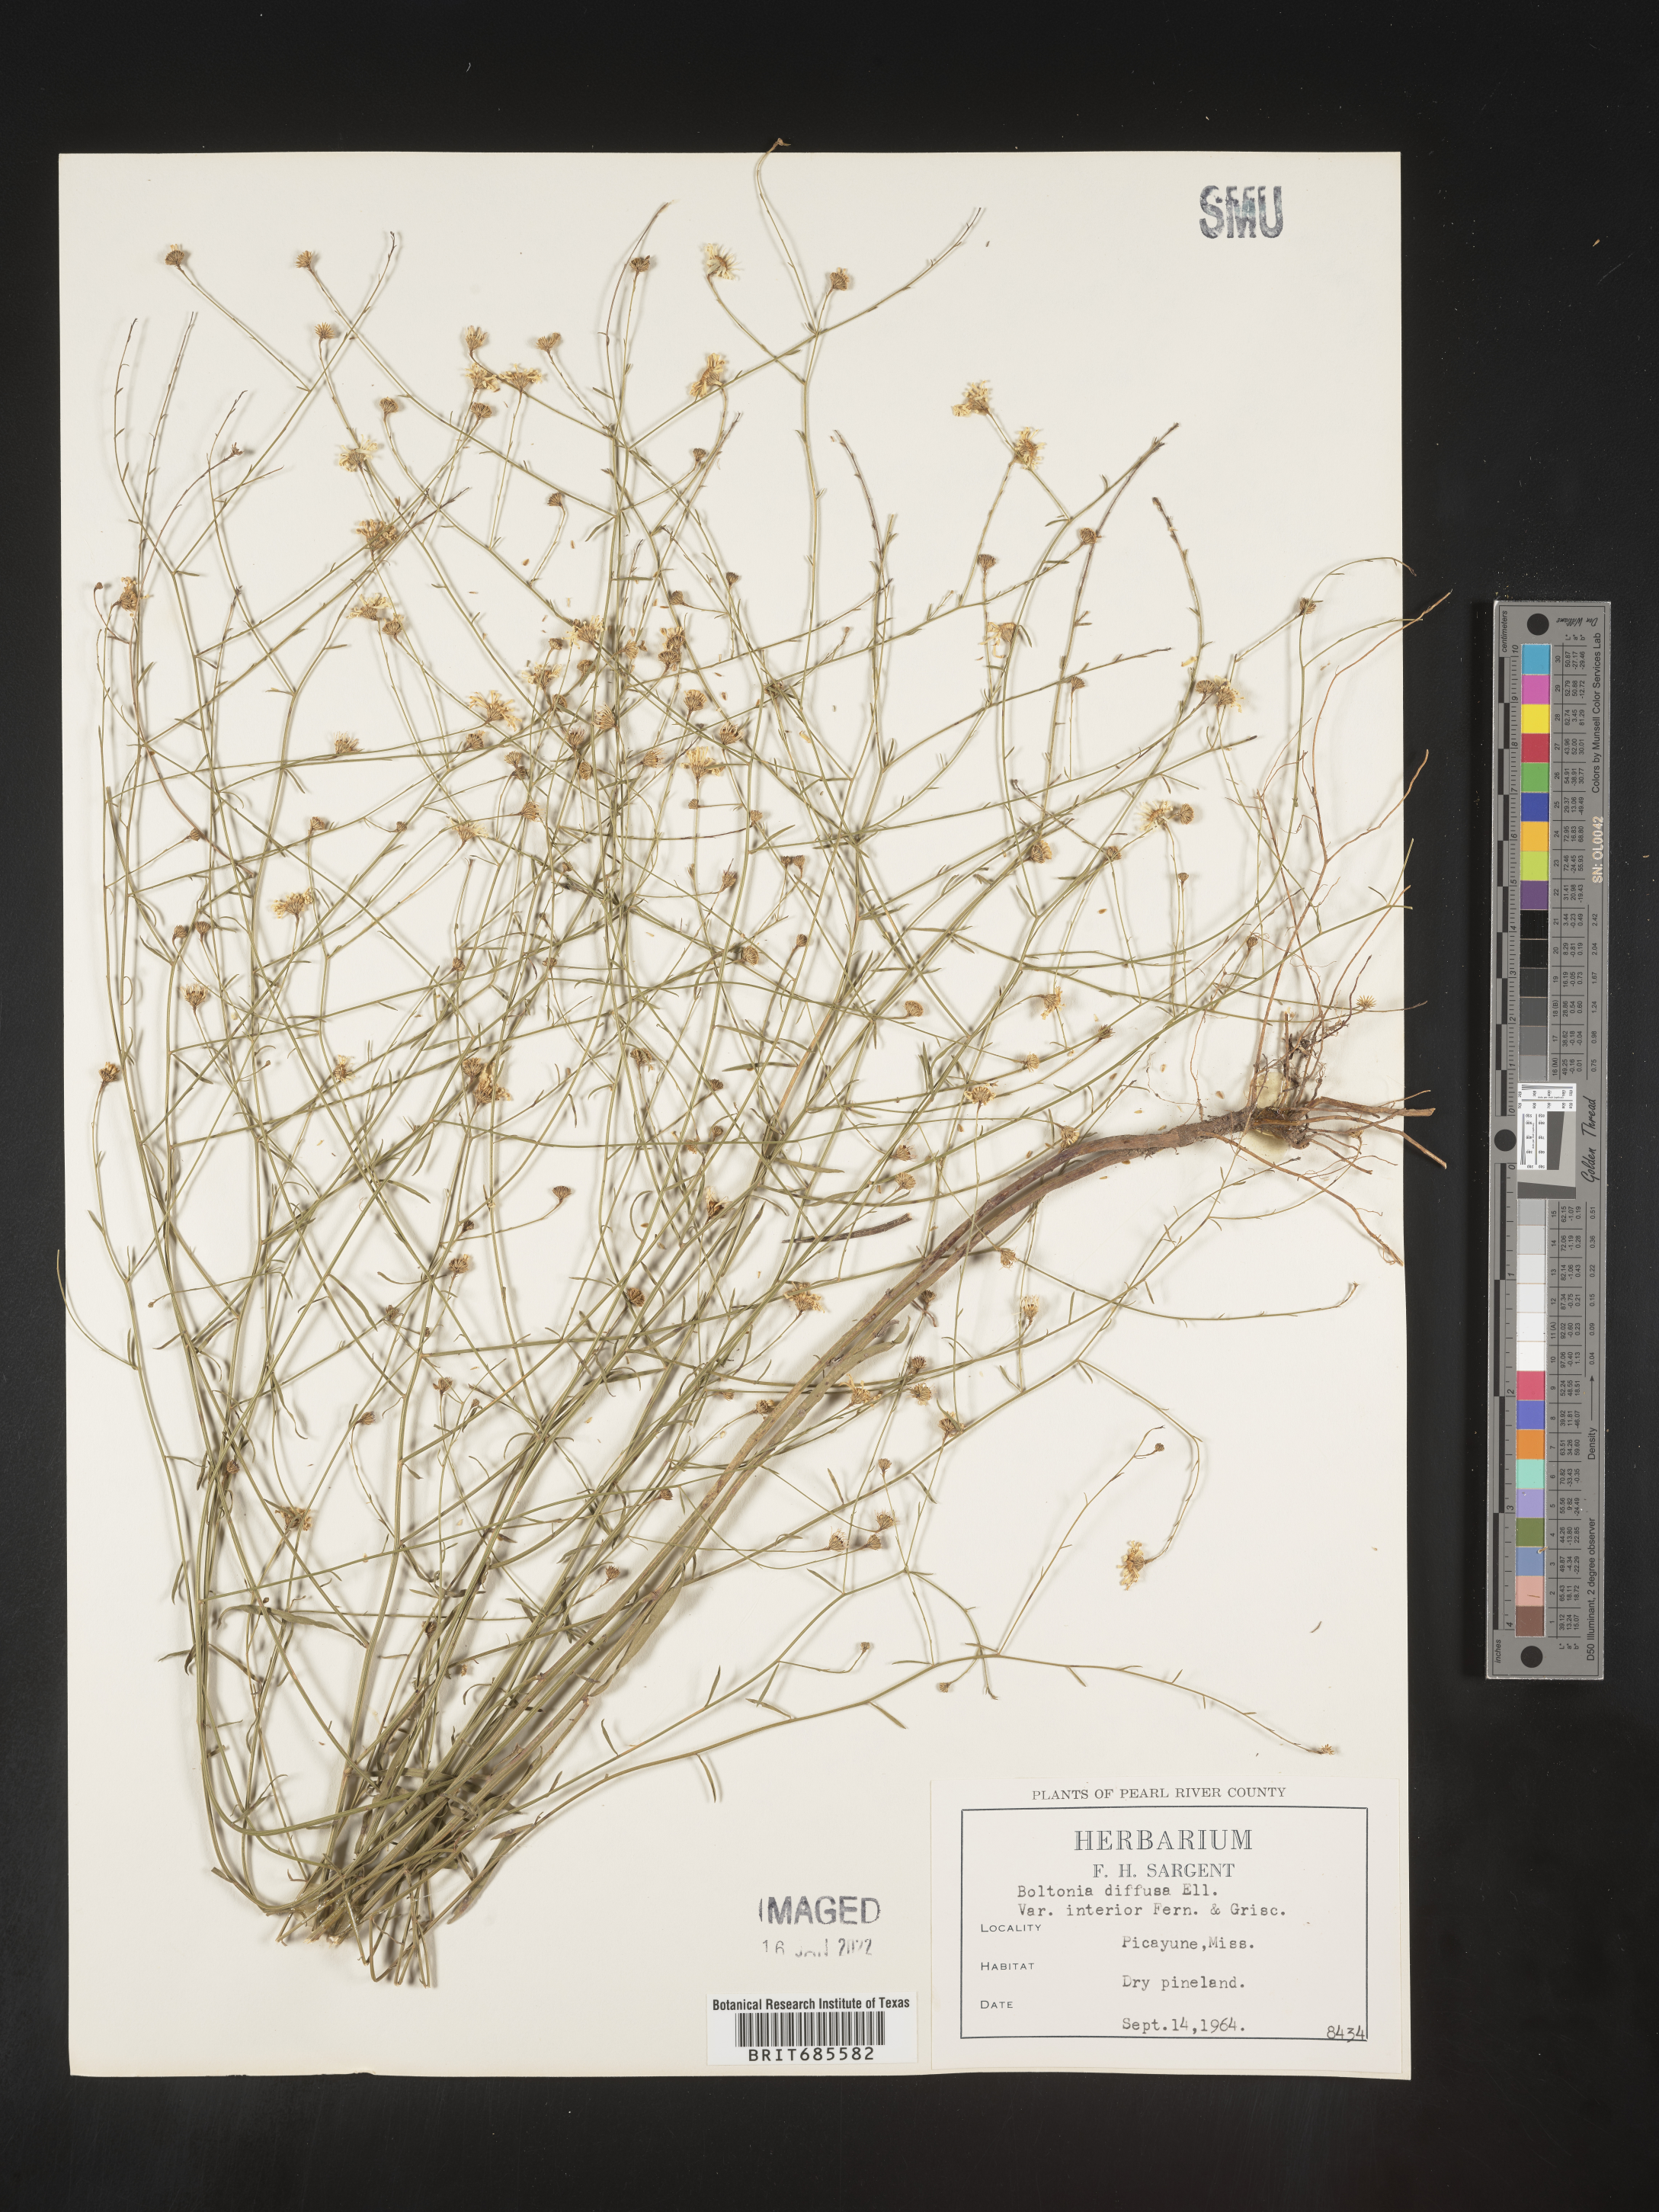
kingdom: Plantae
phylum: Tracheophyta
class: Magnoliopsida
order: Asterales
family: Asteraceae
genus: Boltonia
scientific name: Boltonia diffusa
